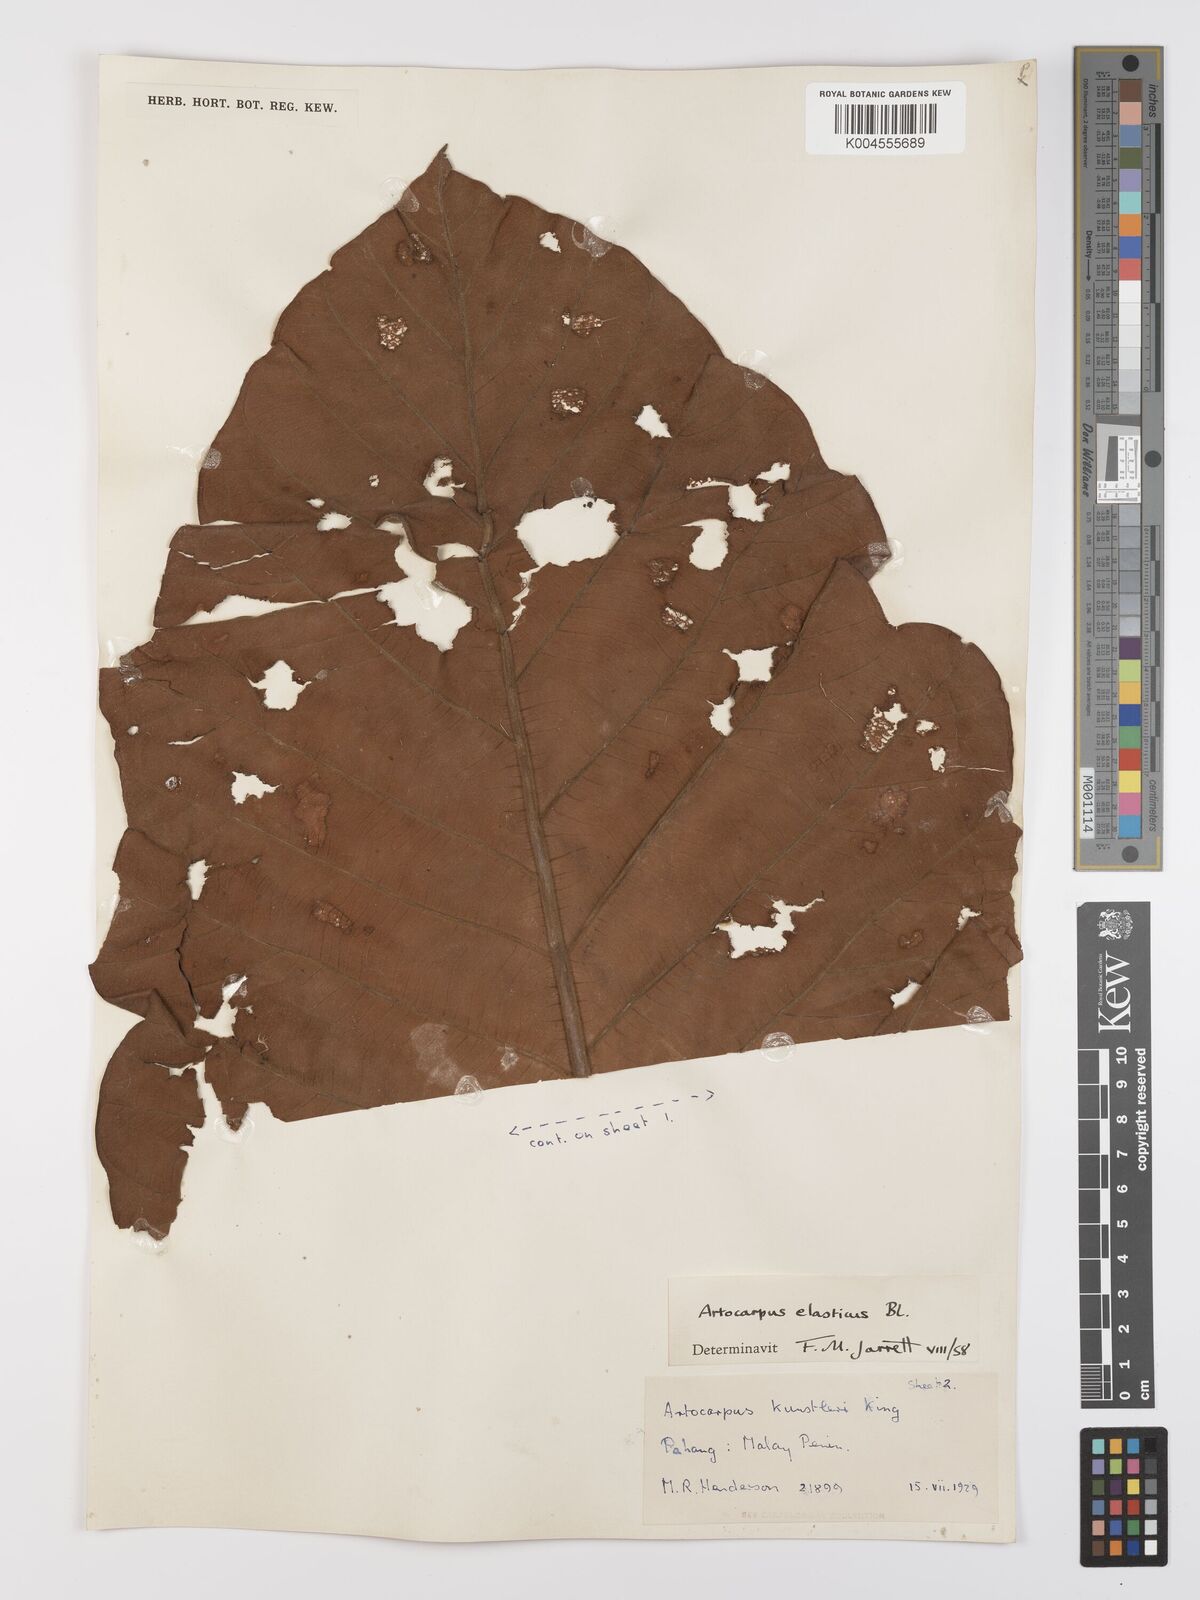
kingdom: Plantae
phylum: Tracheophyta
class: Magnoliopsida
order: Rosales
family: Moraceae
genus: Artocarpus
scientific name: Artocarpus elasticus
